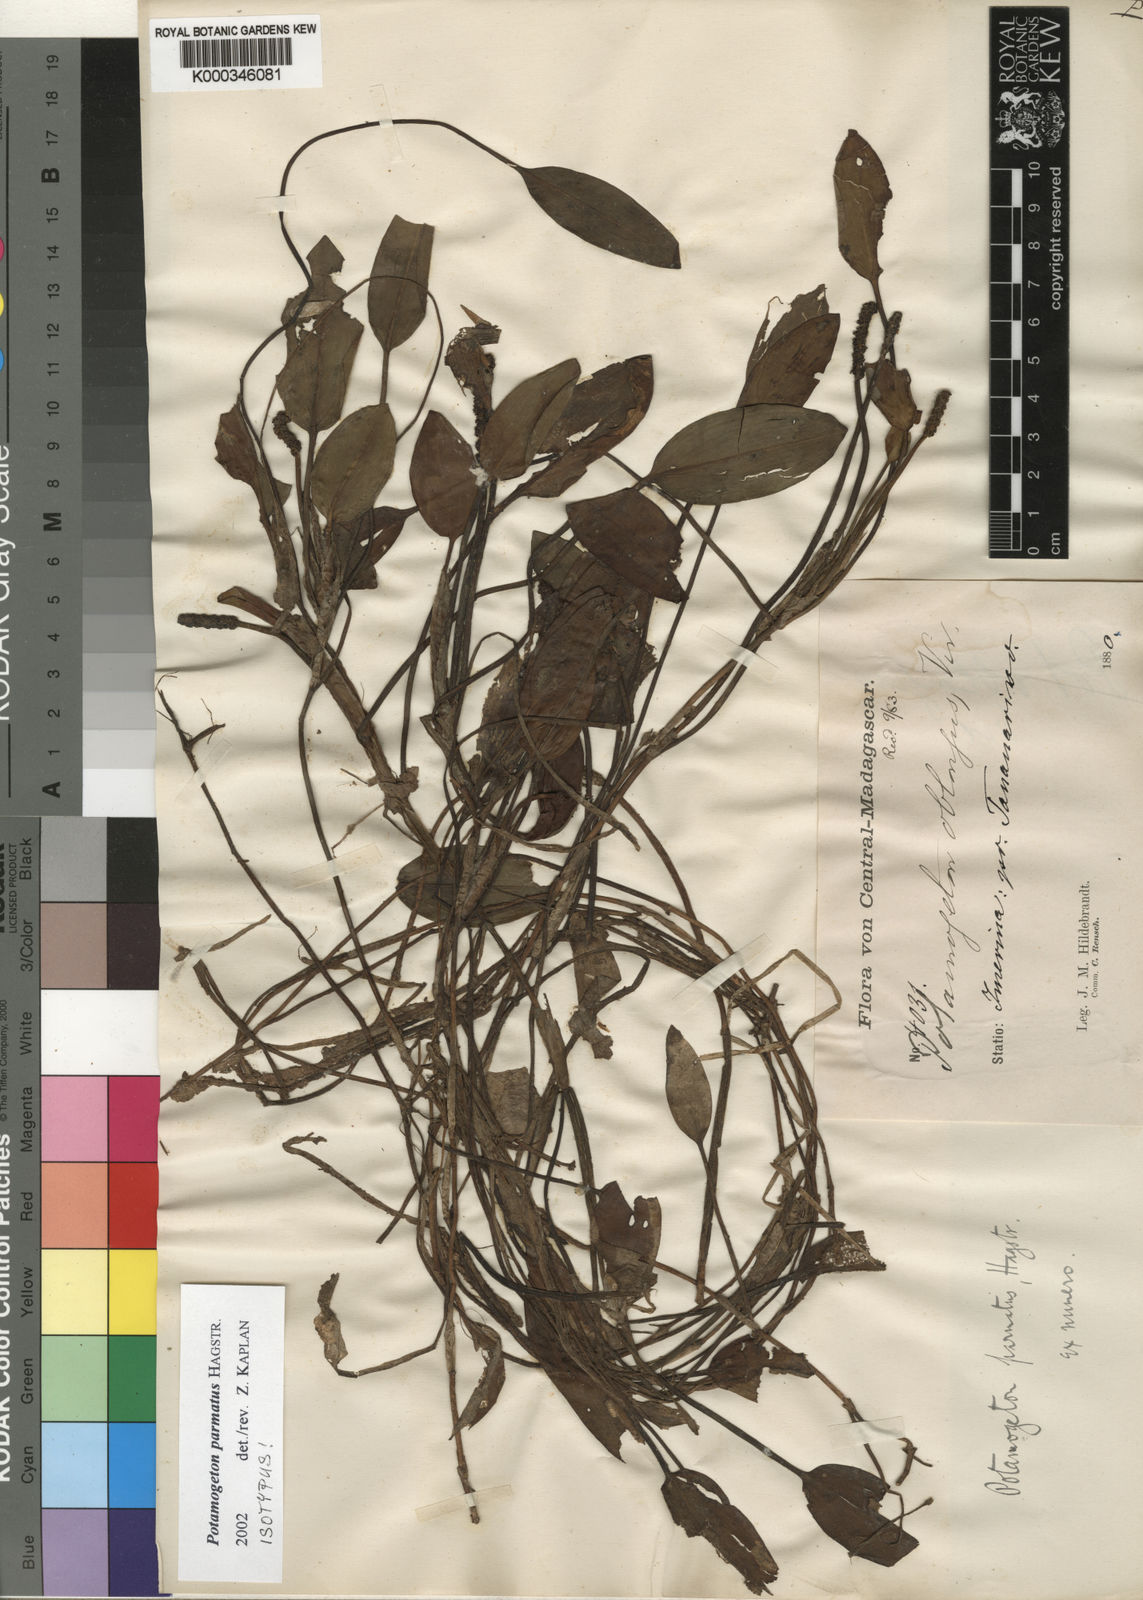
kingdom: Plantae
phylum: Tracheophyta
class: Liliopsida
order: Alismatales
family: Potamogetonaceae
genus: Potamogeton
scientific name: Potamogeton parmatus
